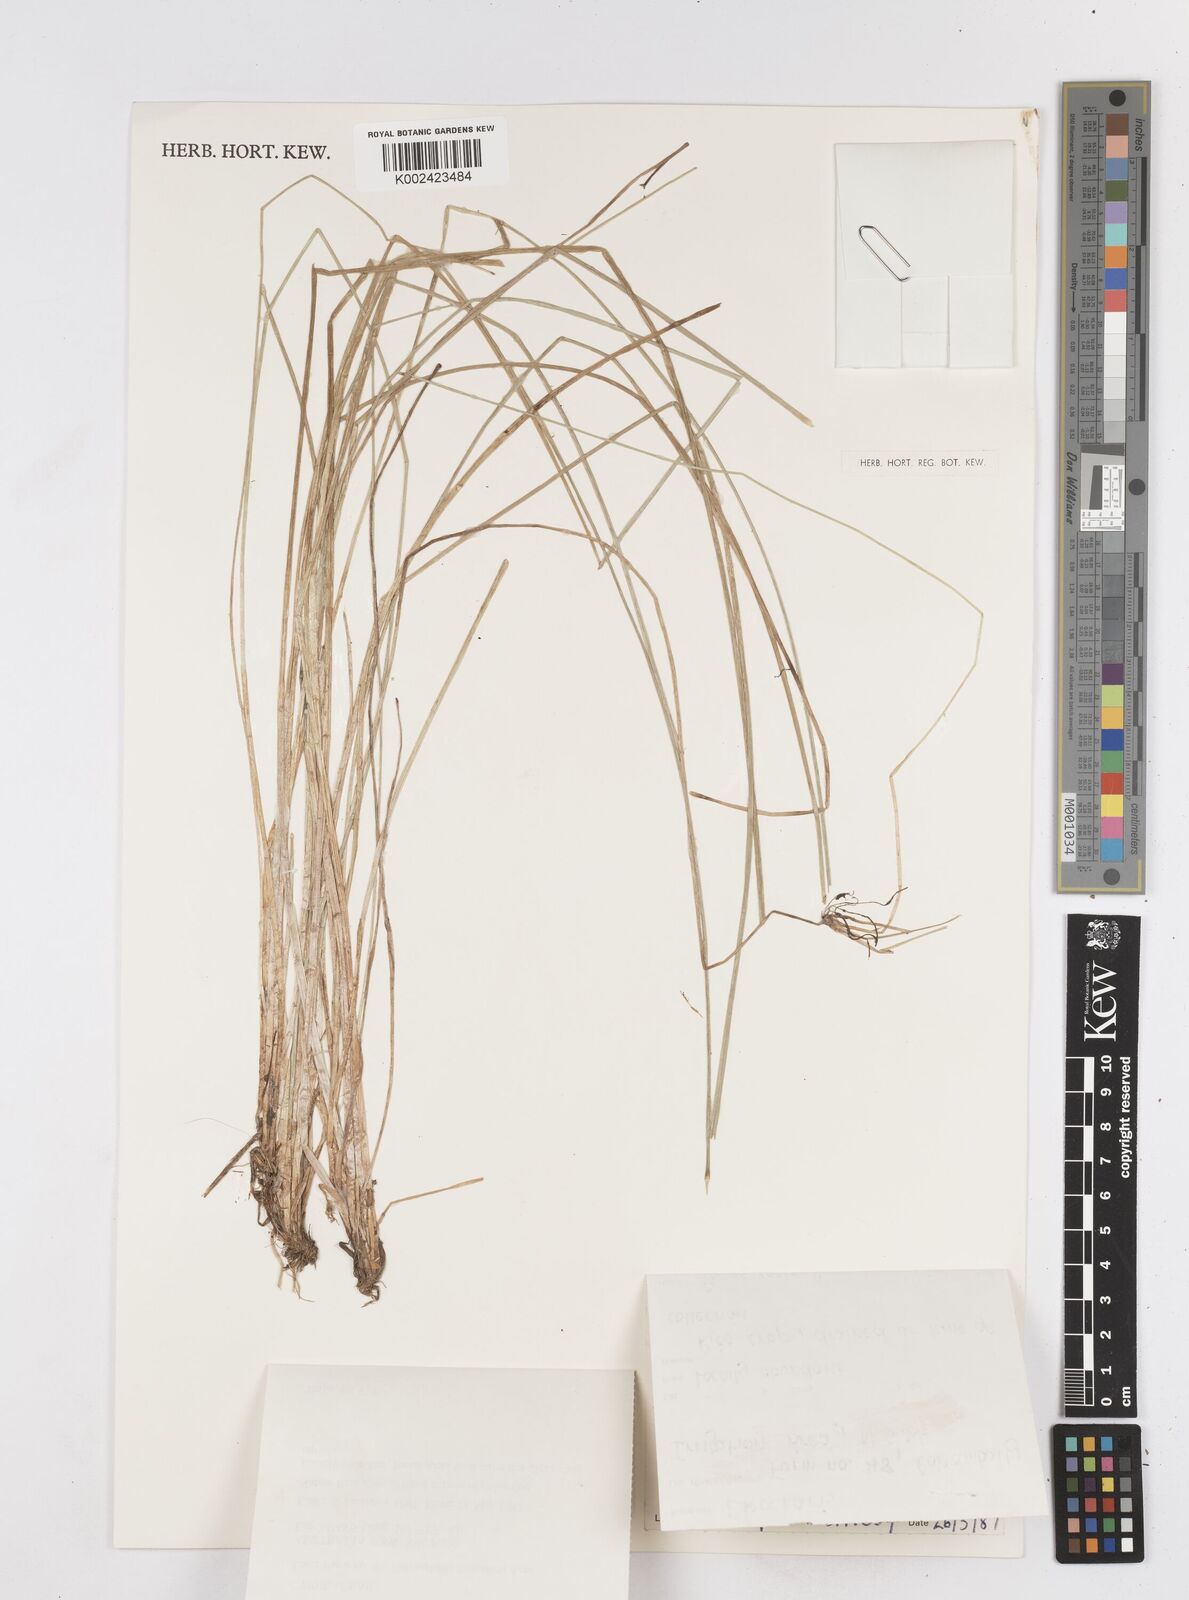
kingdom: Plantae
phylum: Tracheophyta
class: Liliopsida
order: Poales
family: Cyperaceae
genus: Eleocharis
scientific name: Eleocharis macbarronii
